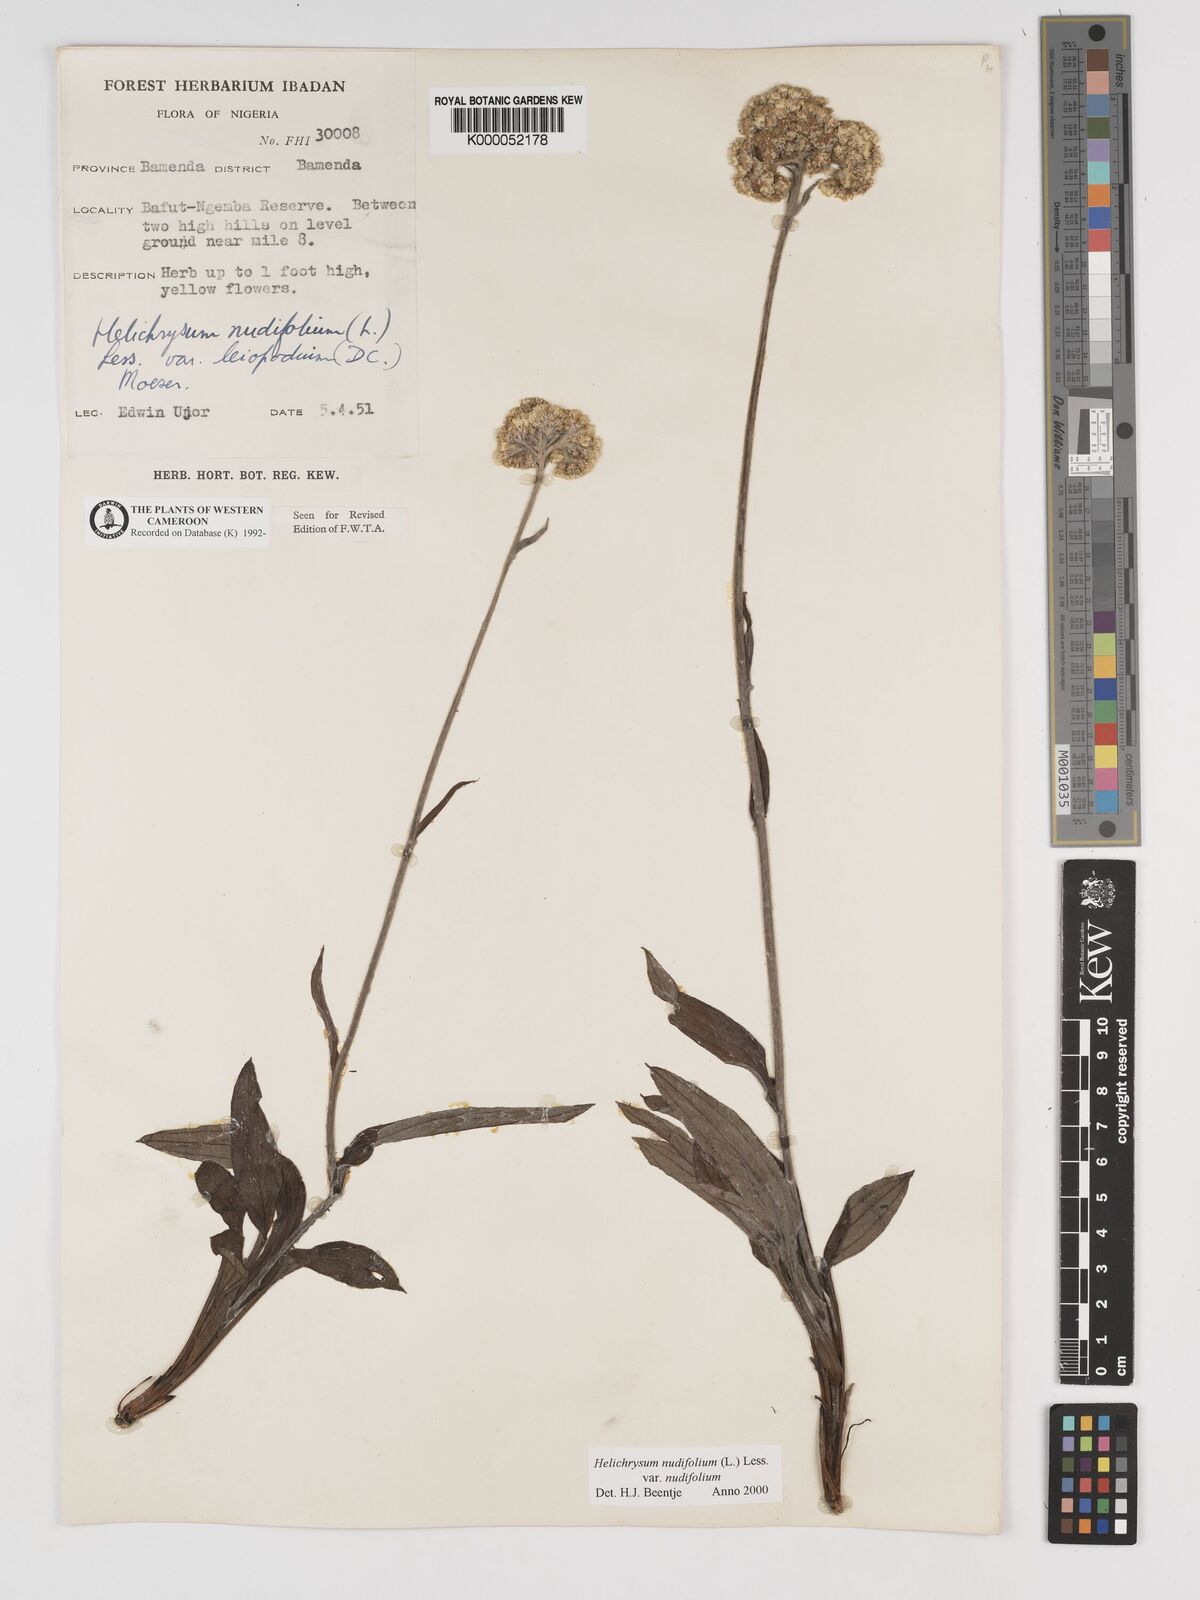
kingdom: Plantae
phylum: Tracheophyta
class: Magnoliopsida
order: Asterales
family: Asteraceae
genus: Helichrysum
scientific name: Helichrysum nudifolium
